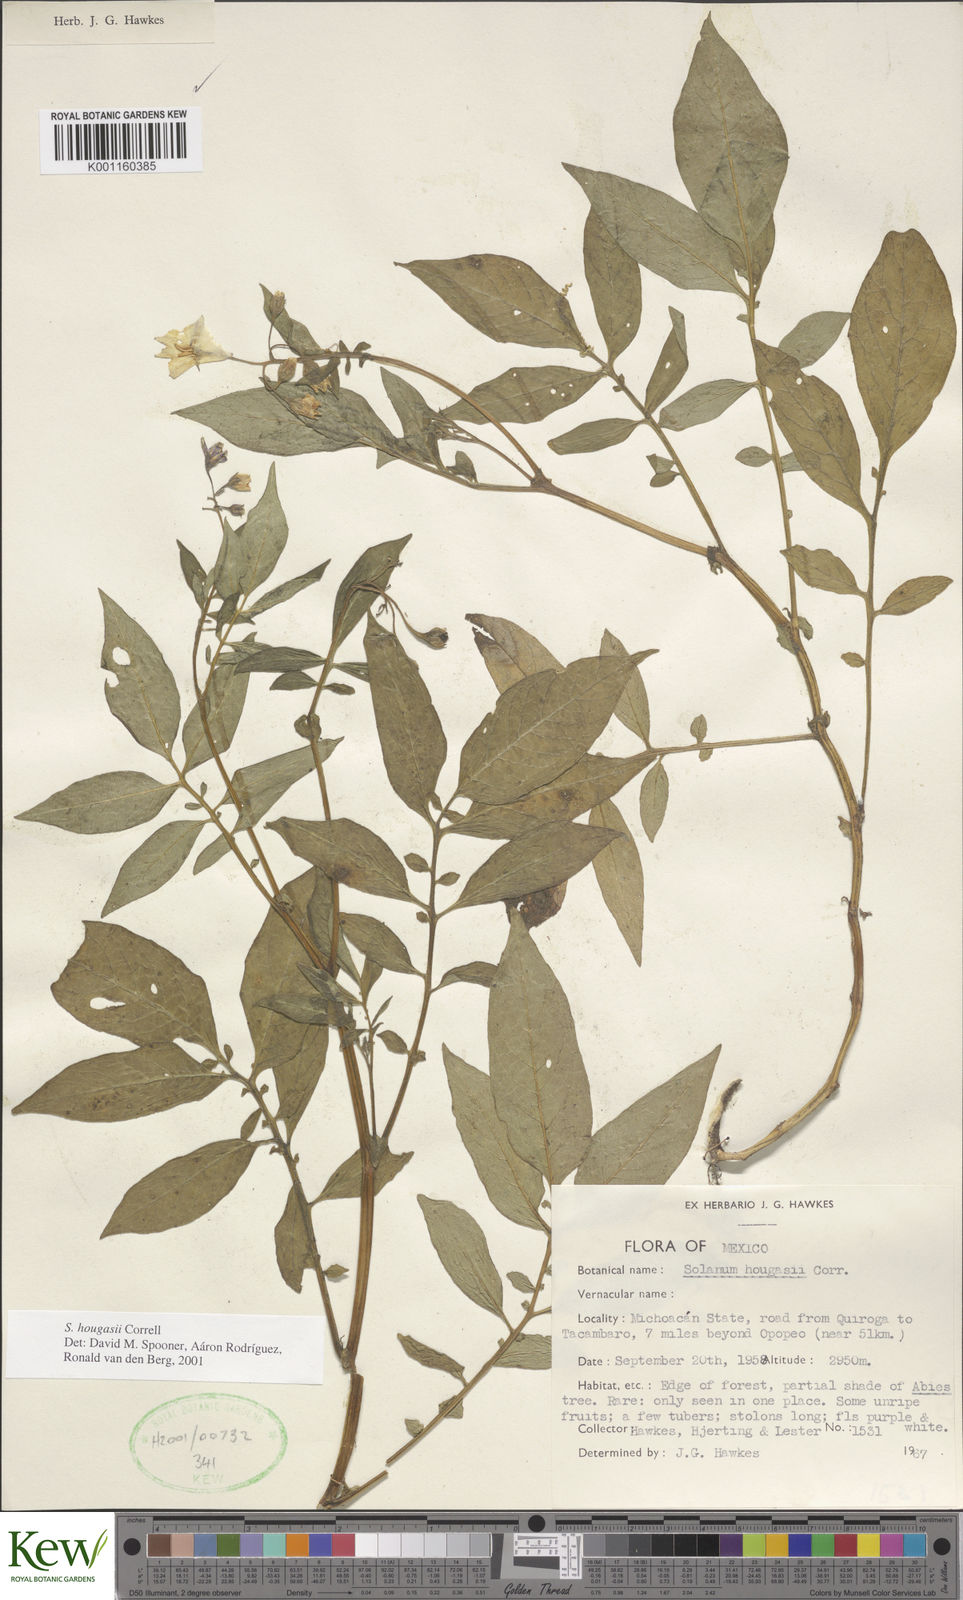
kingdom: Plantae
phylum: Tracheophyta
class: Magnoliopsida
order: Solanales
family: Solanaceae
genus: Solanum
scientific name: Solanum hougasii
